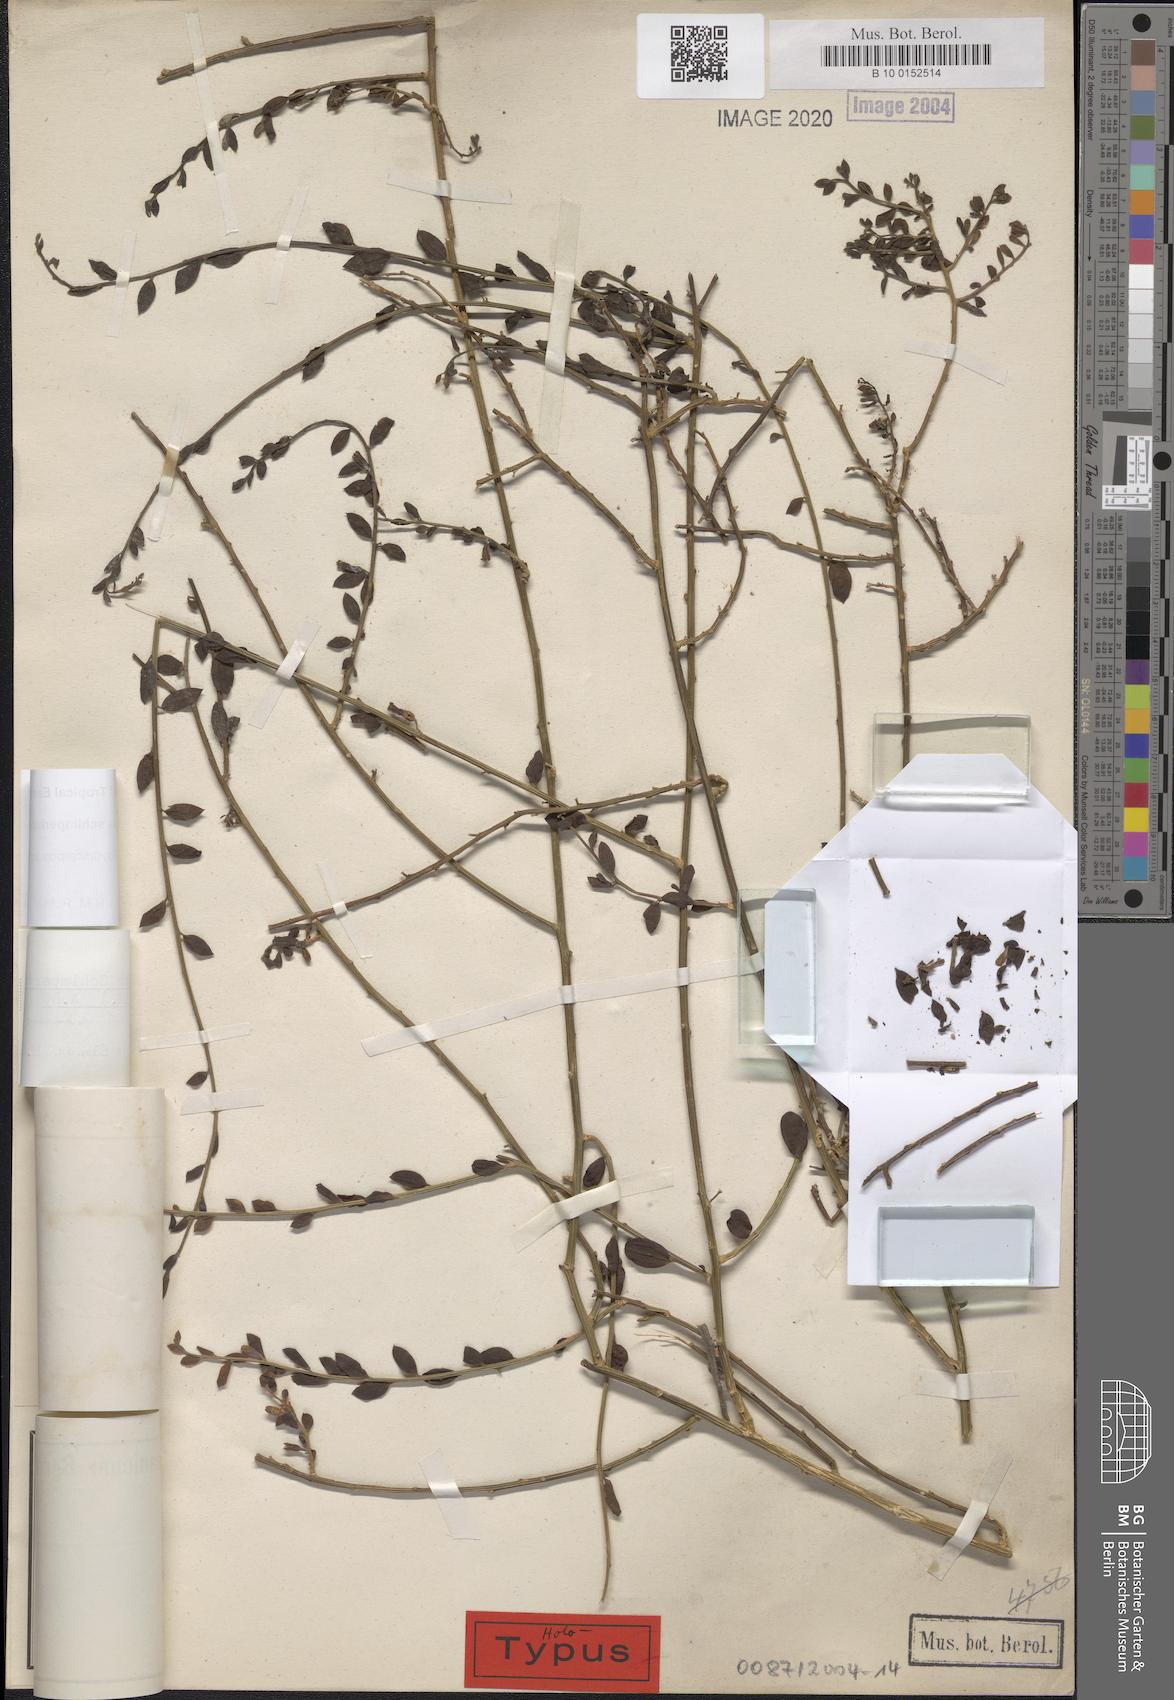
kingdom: Plantae
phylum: Tracheophyta
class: Magnoliopsida
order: Santalales
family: Thesiaceae
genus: Osyridicarpos
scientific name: Osyridicarpos schimperianus
